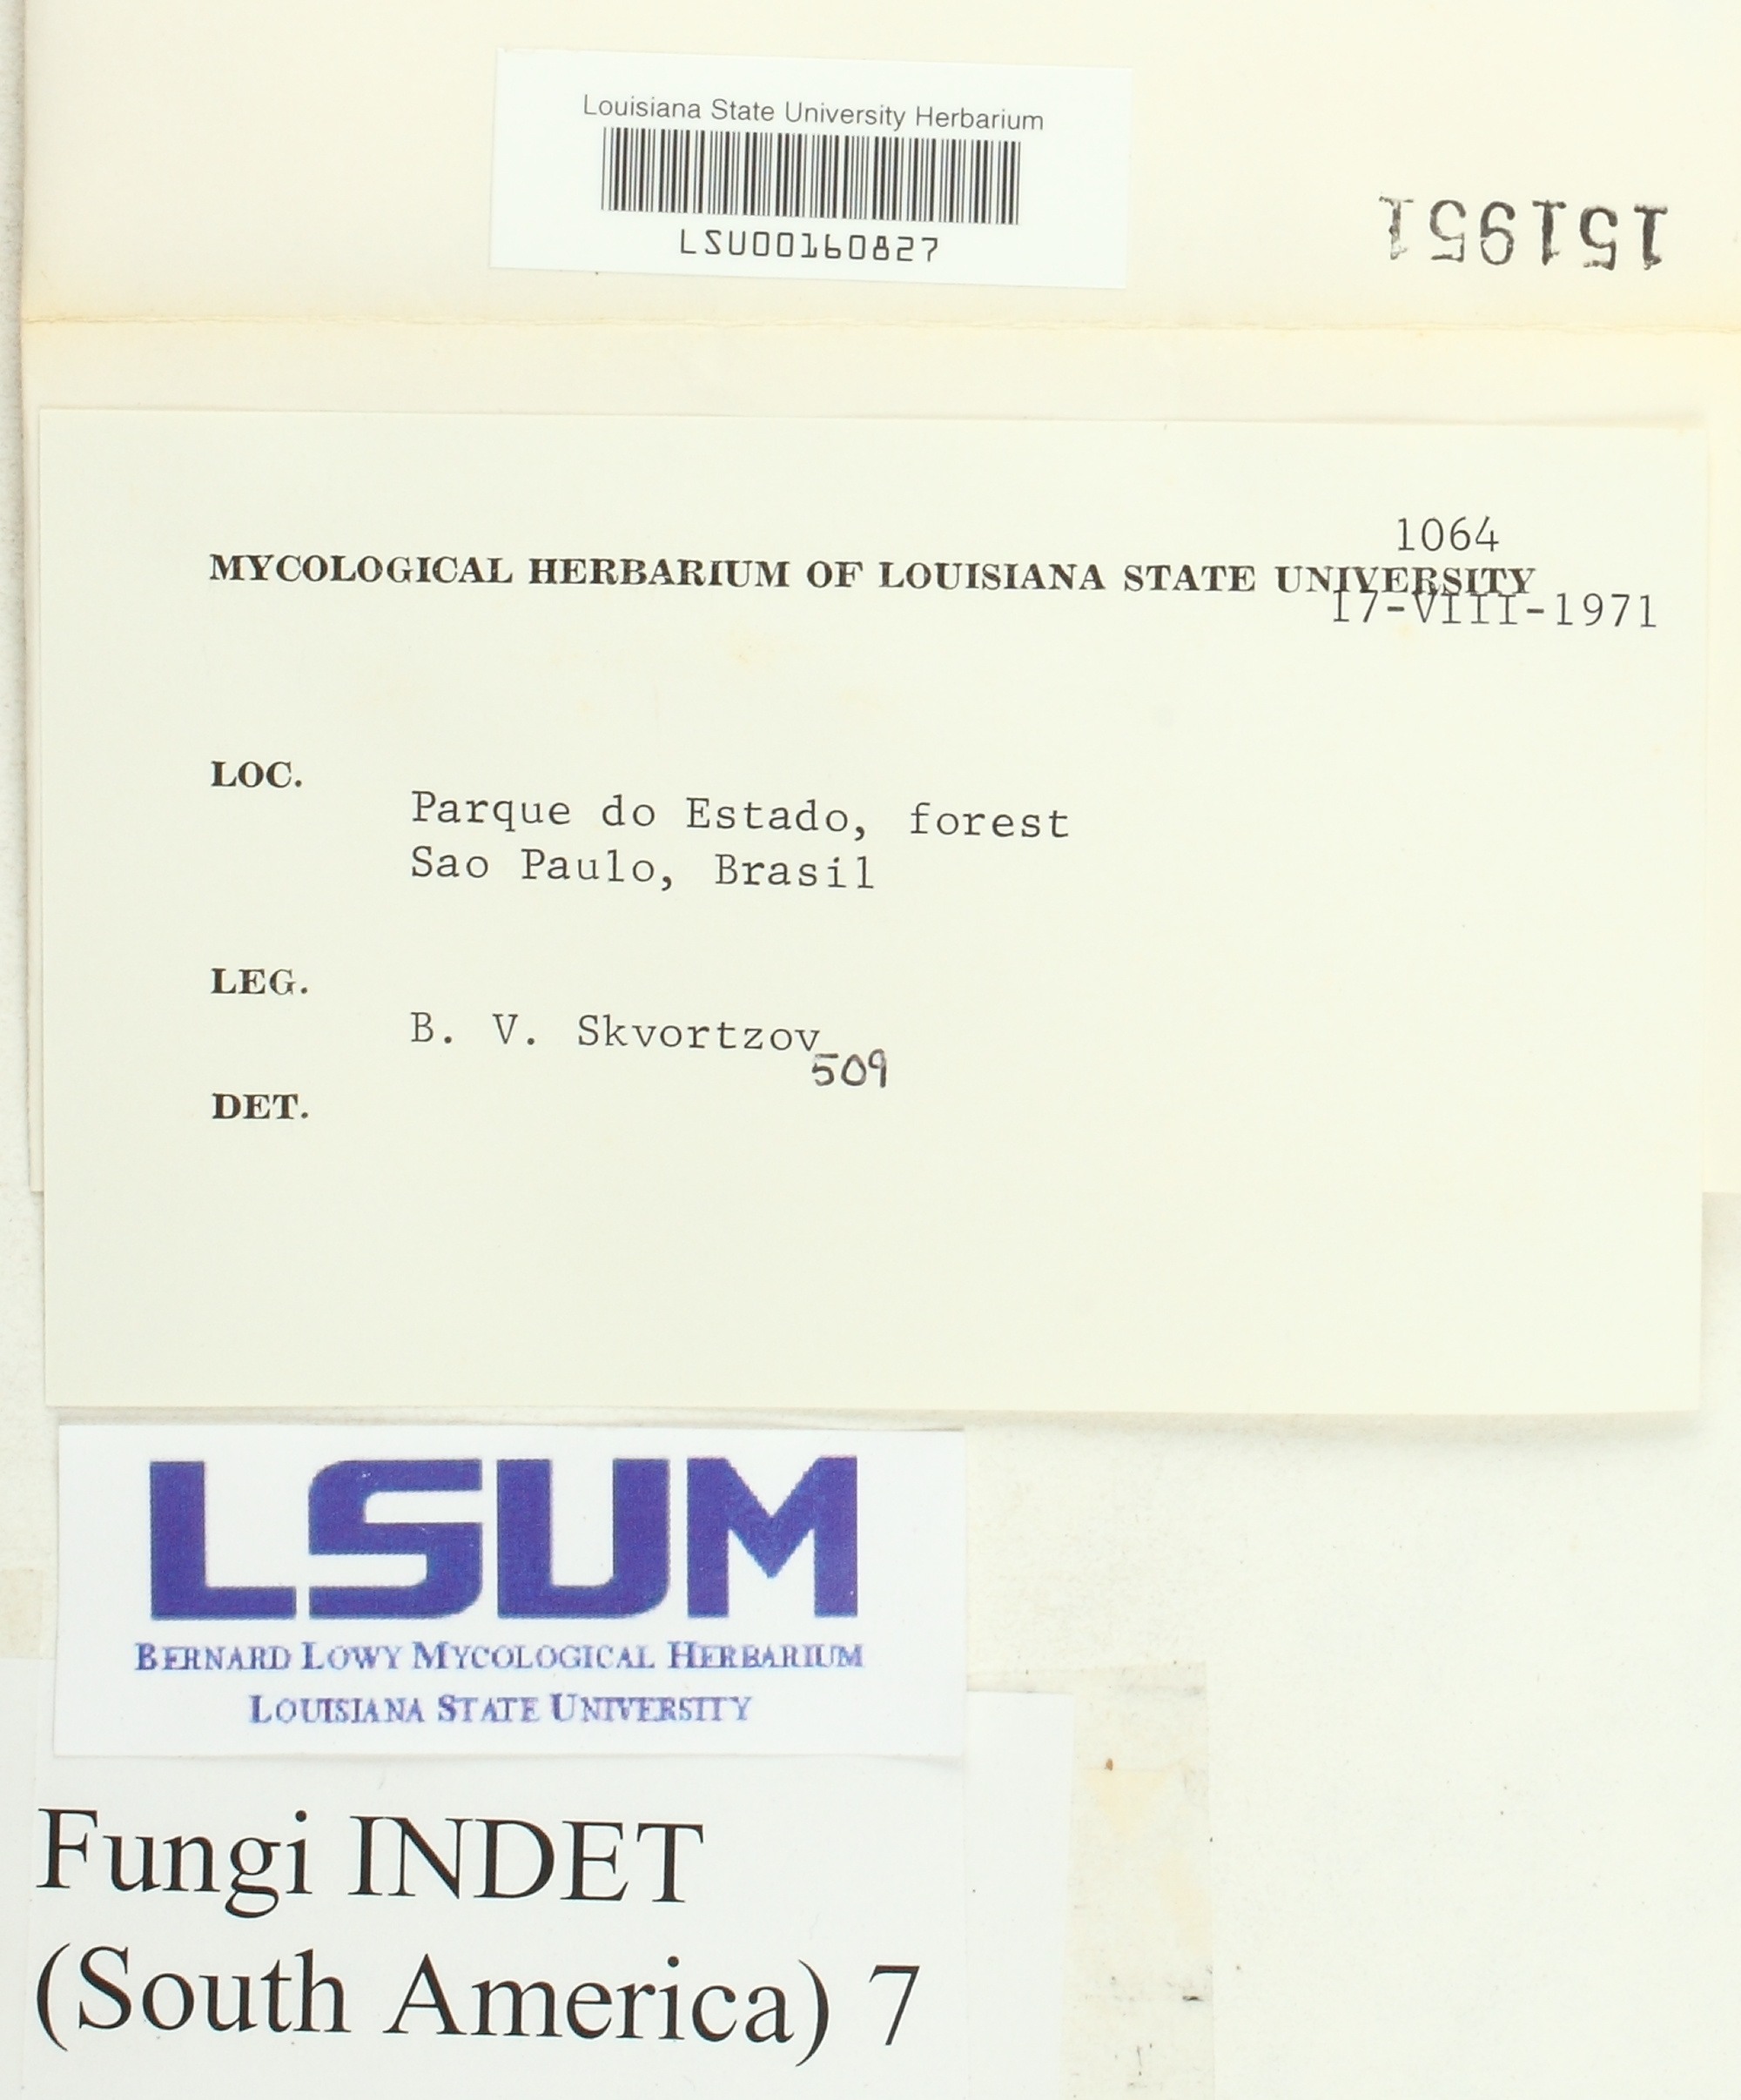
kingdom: Fungi
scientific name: Fungi
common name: Fungi
